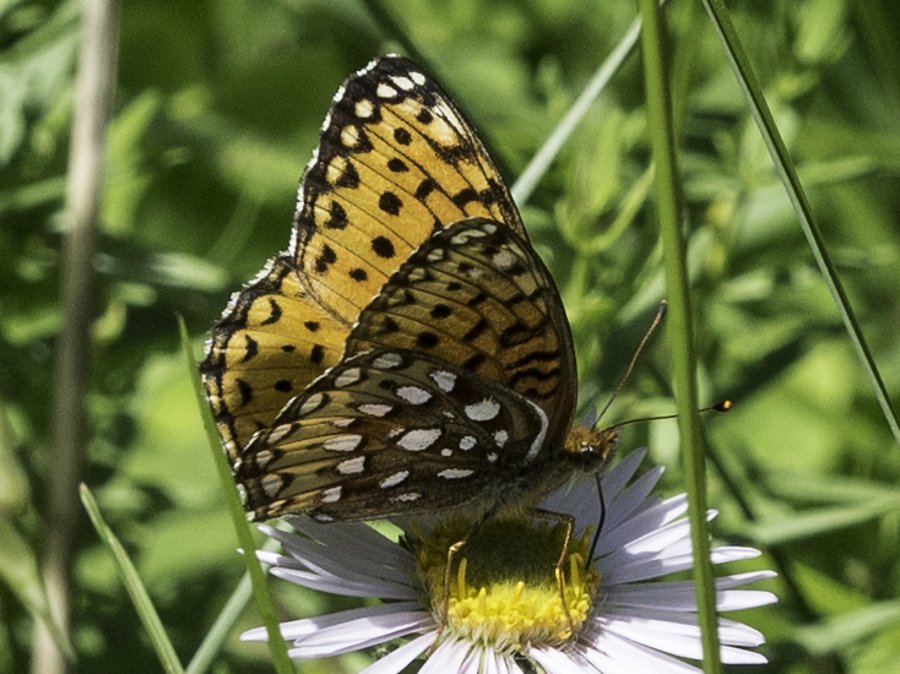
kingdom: Animalia
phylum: Arthropoda
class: Insecta
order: Lepidoptera
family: Nymphalidae
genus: Speyeria
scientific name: Speyeria atlantis
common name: Atlantis Fritillary
